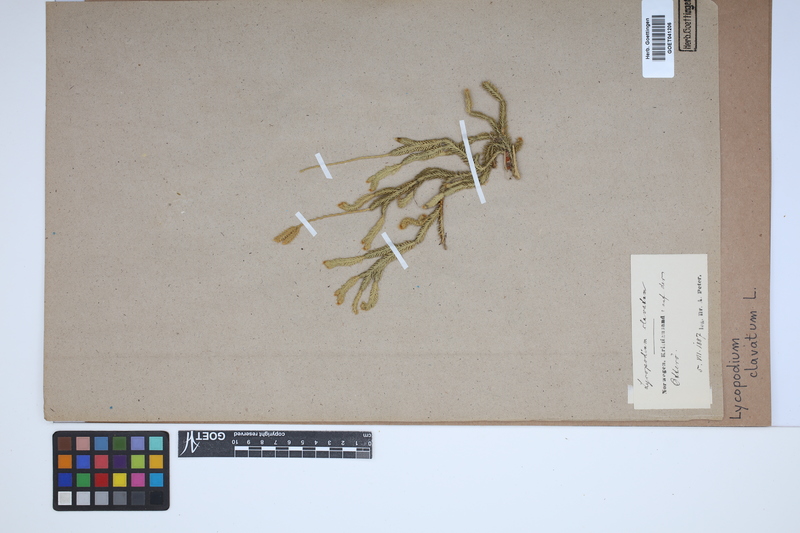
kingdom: Plantae
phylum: Tracheophyta
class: Lycopodiopsida
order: Lycopodiales
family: Lycopodiaceae
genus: Lycopodium
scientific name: Lycopodium clavatum
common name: Stag's-horn clubmoss
